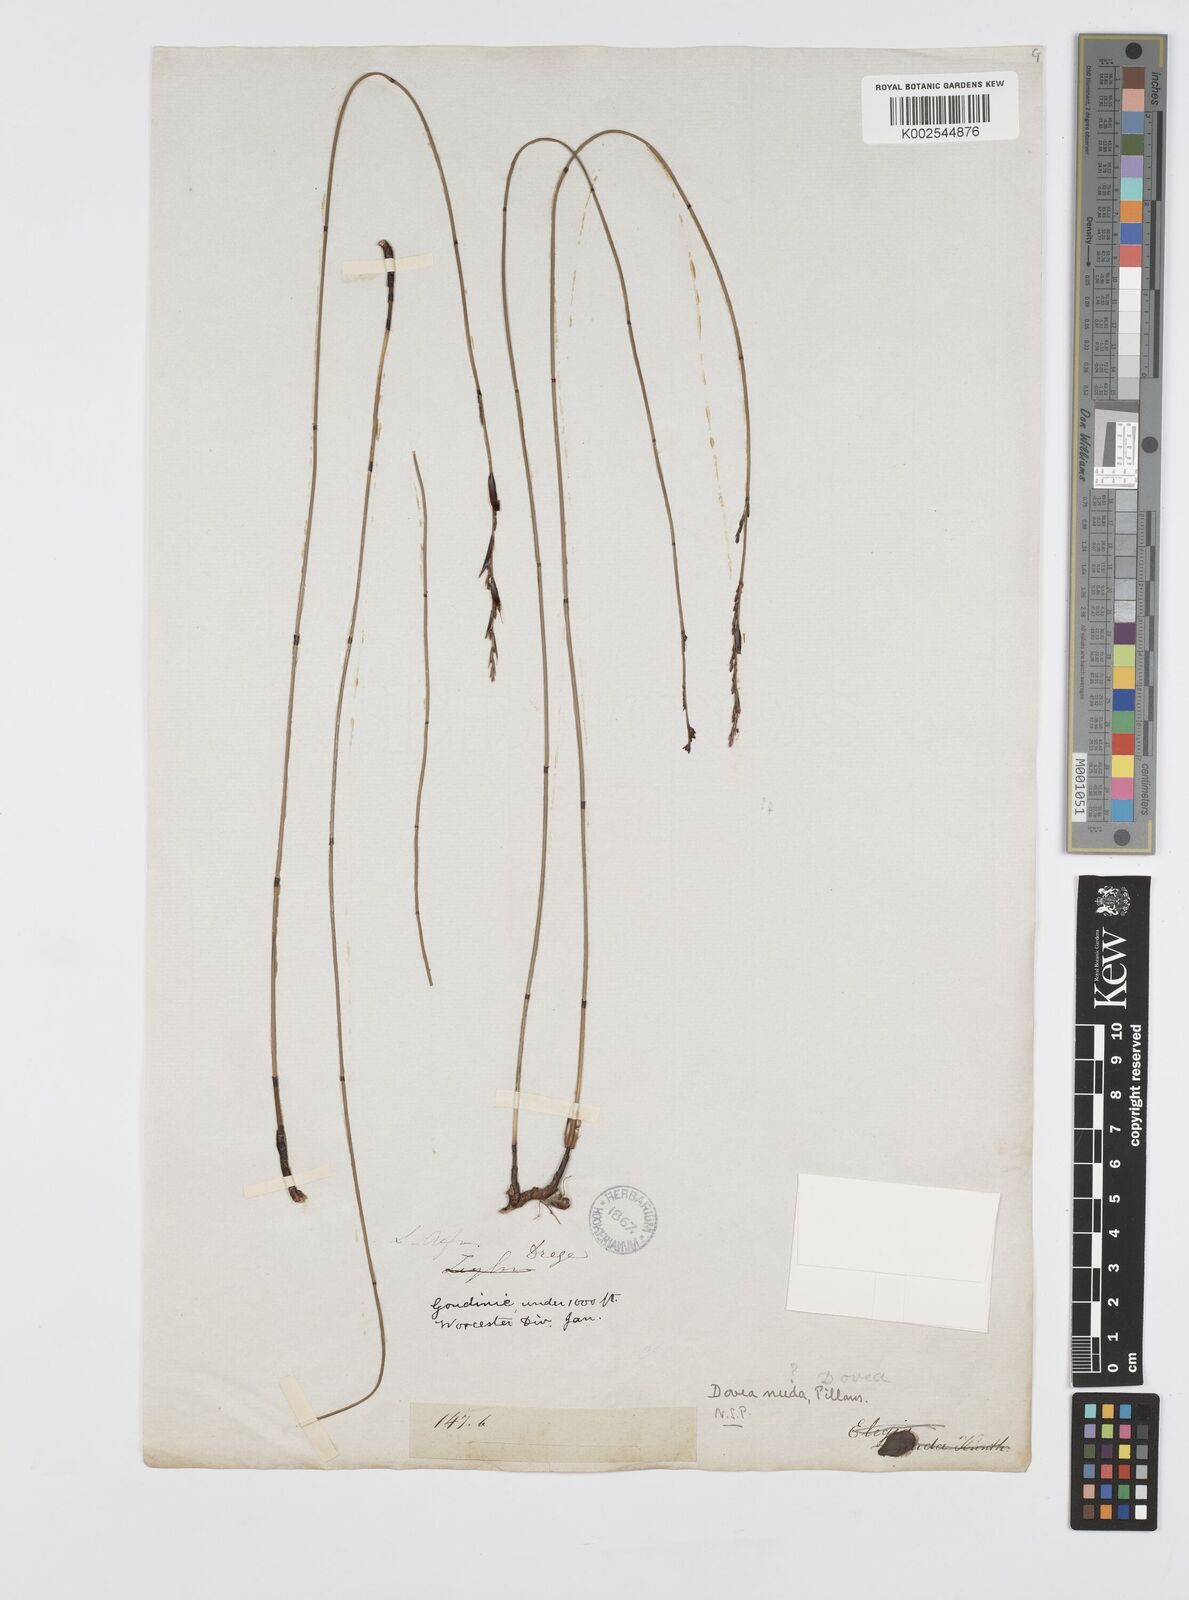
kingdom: Plantae
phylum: Tracheophyta
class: Liliopsida
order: Poales
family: Restionaceae
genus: Elegia
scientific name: Elegia nuda
